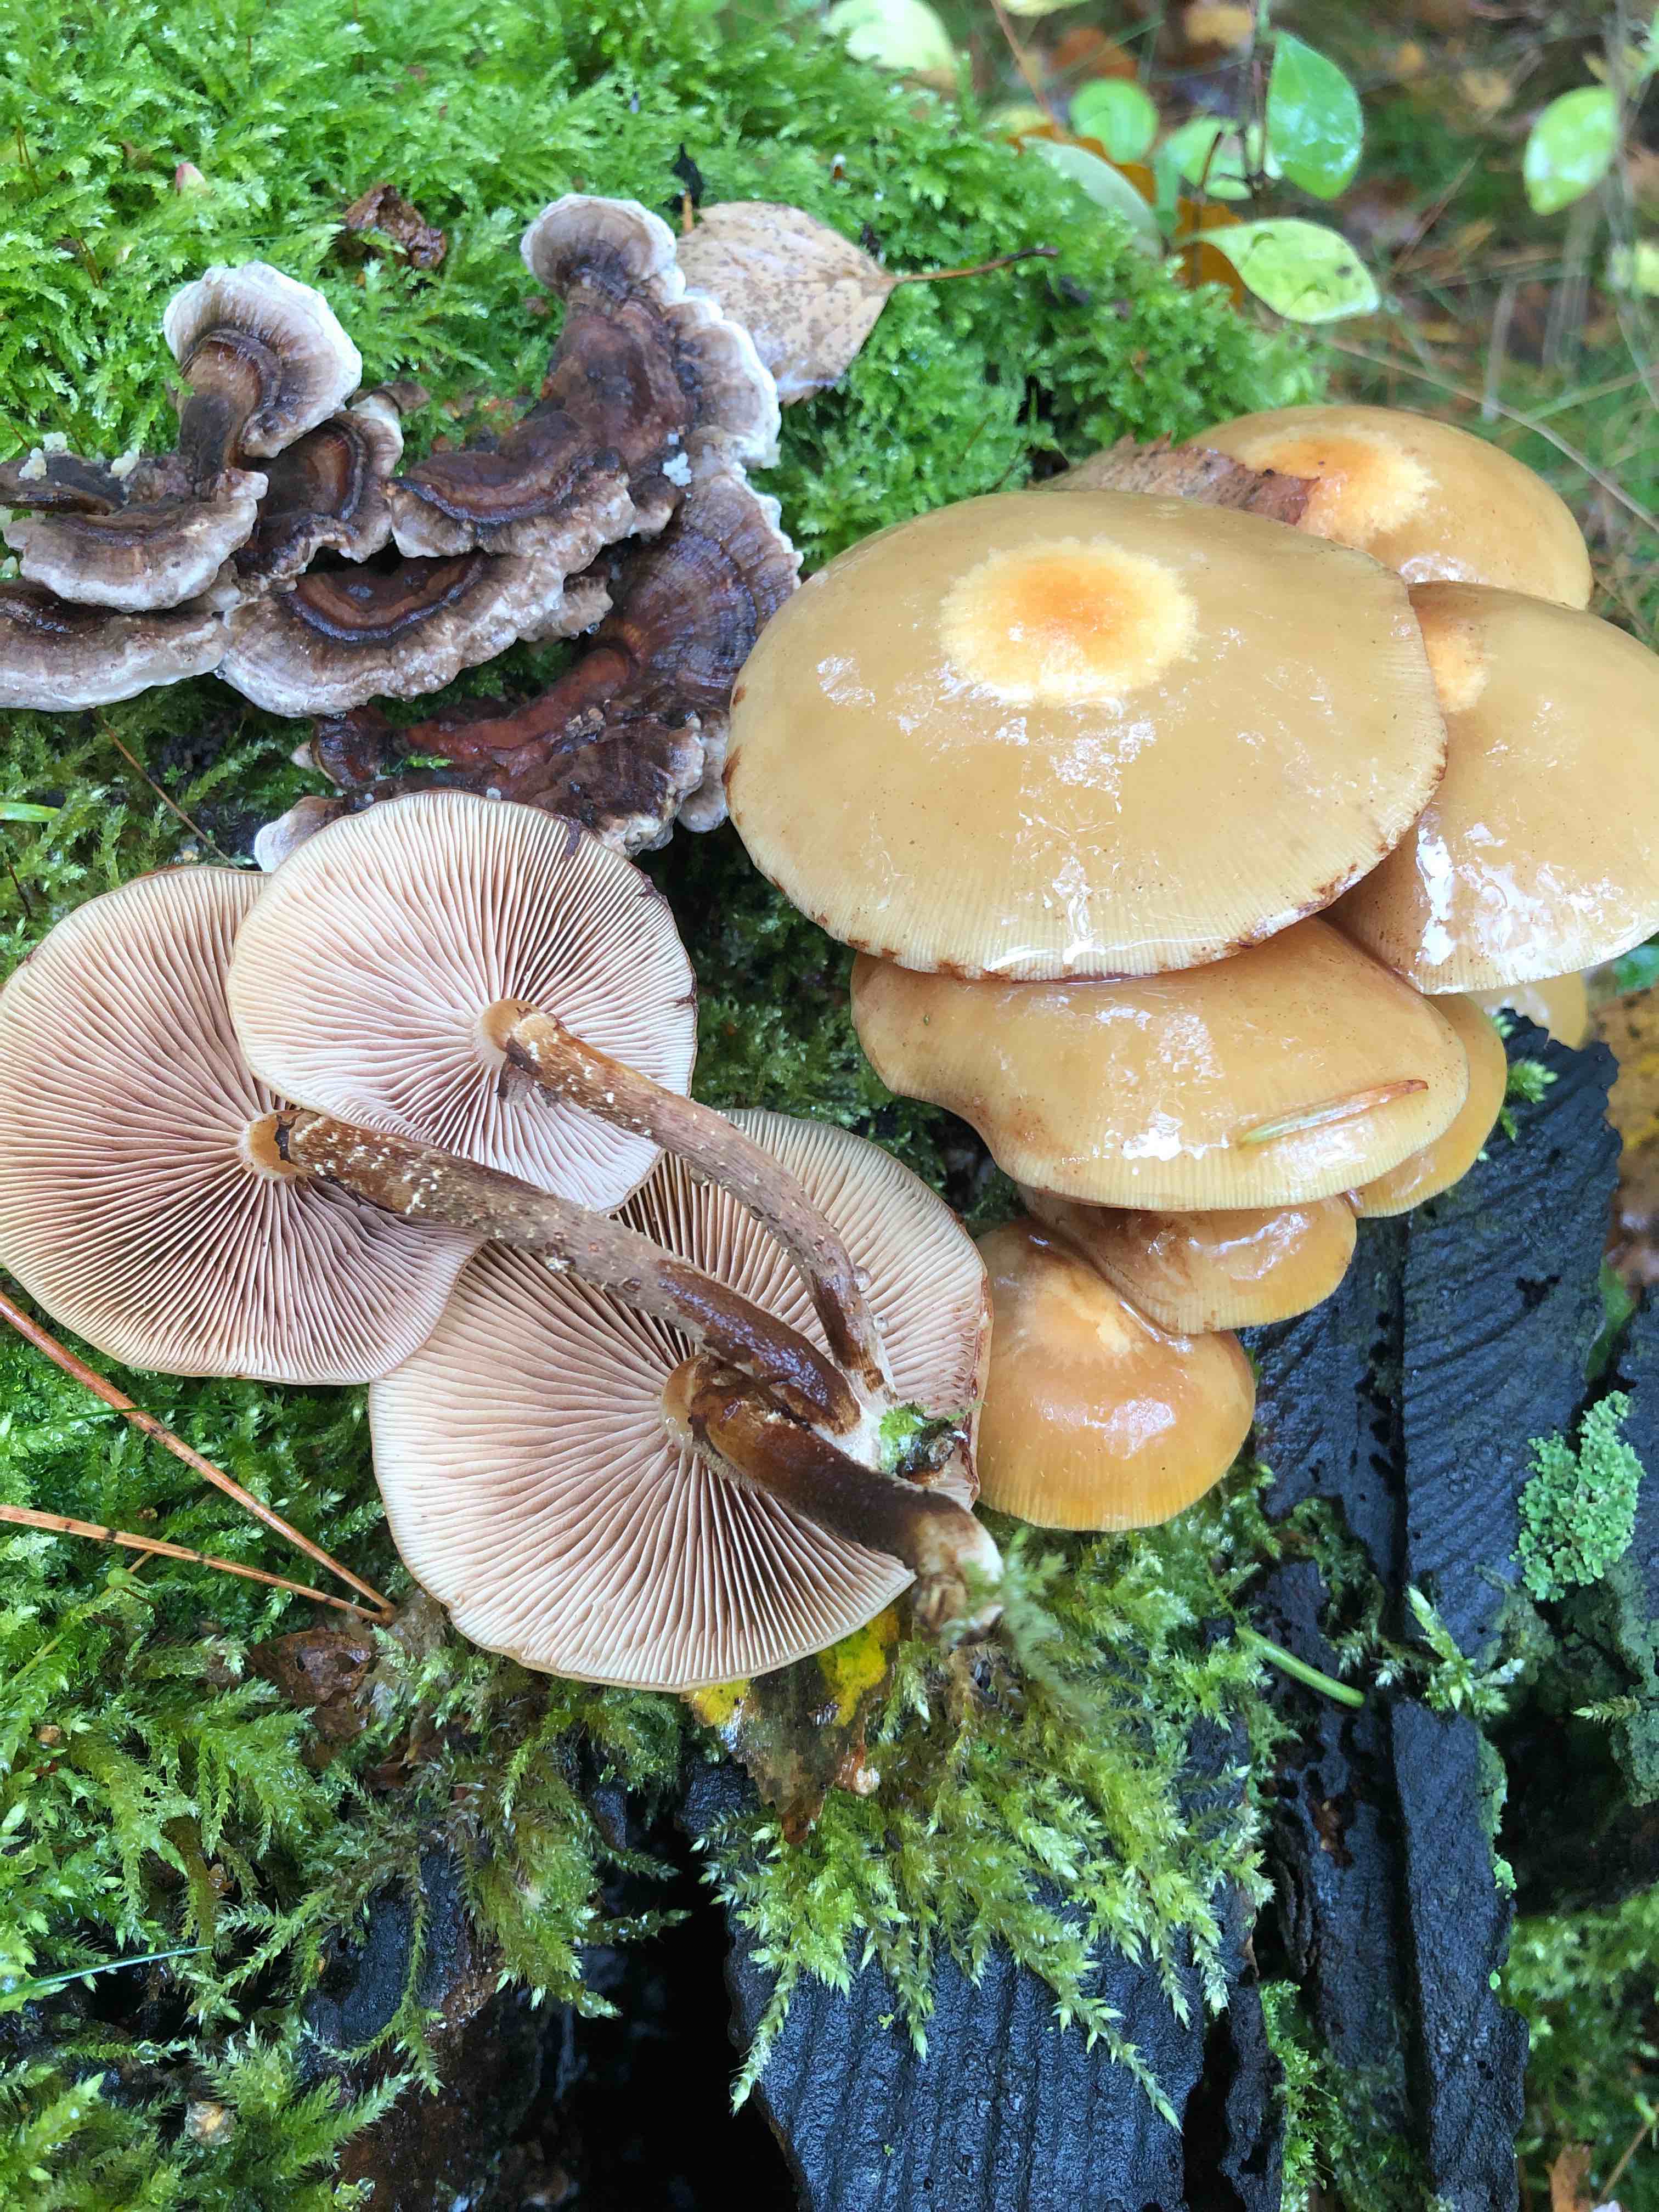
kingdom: Fungi
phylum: Basidiomycota
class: Agaricomycetes
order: Agaricales
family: Strophariaceae
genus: Kuehneromyces
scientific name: Kuehneromyces mutabilis
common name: foranderlig skælhat
